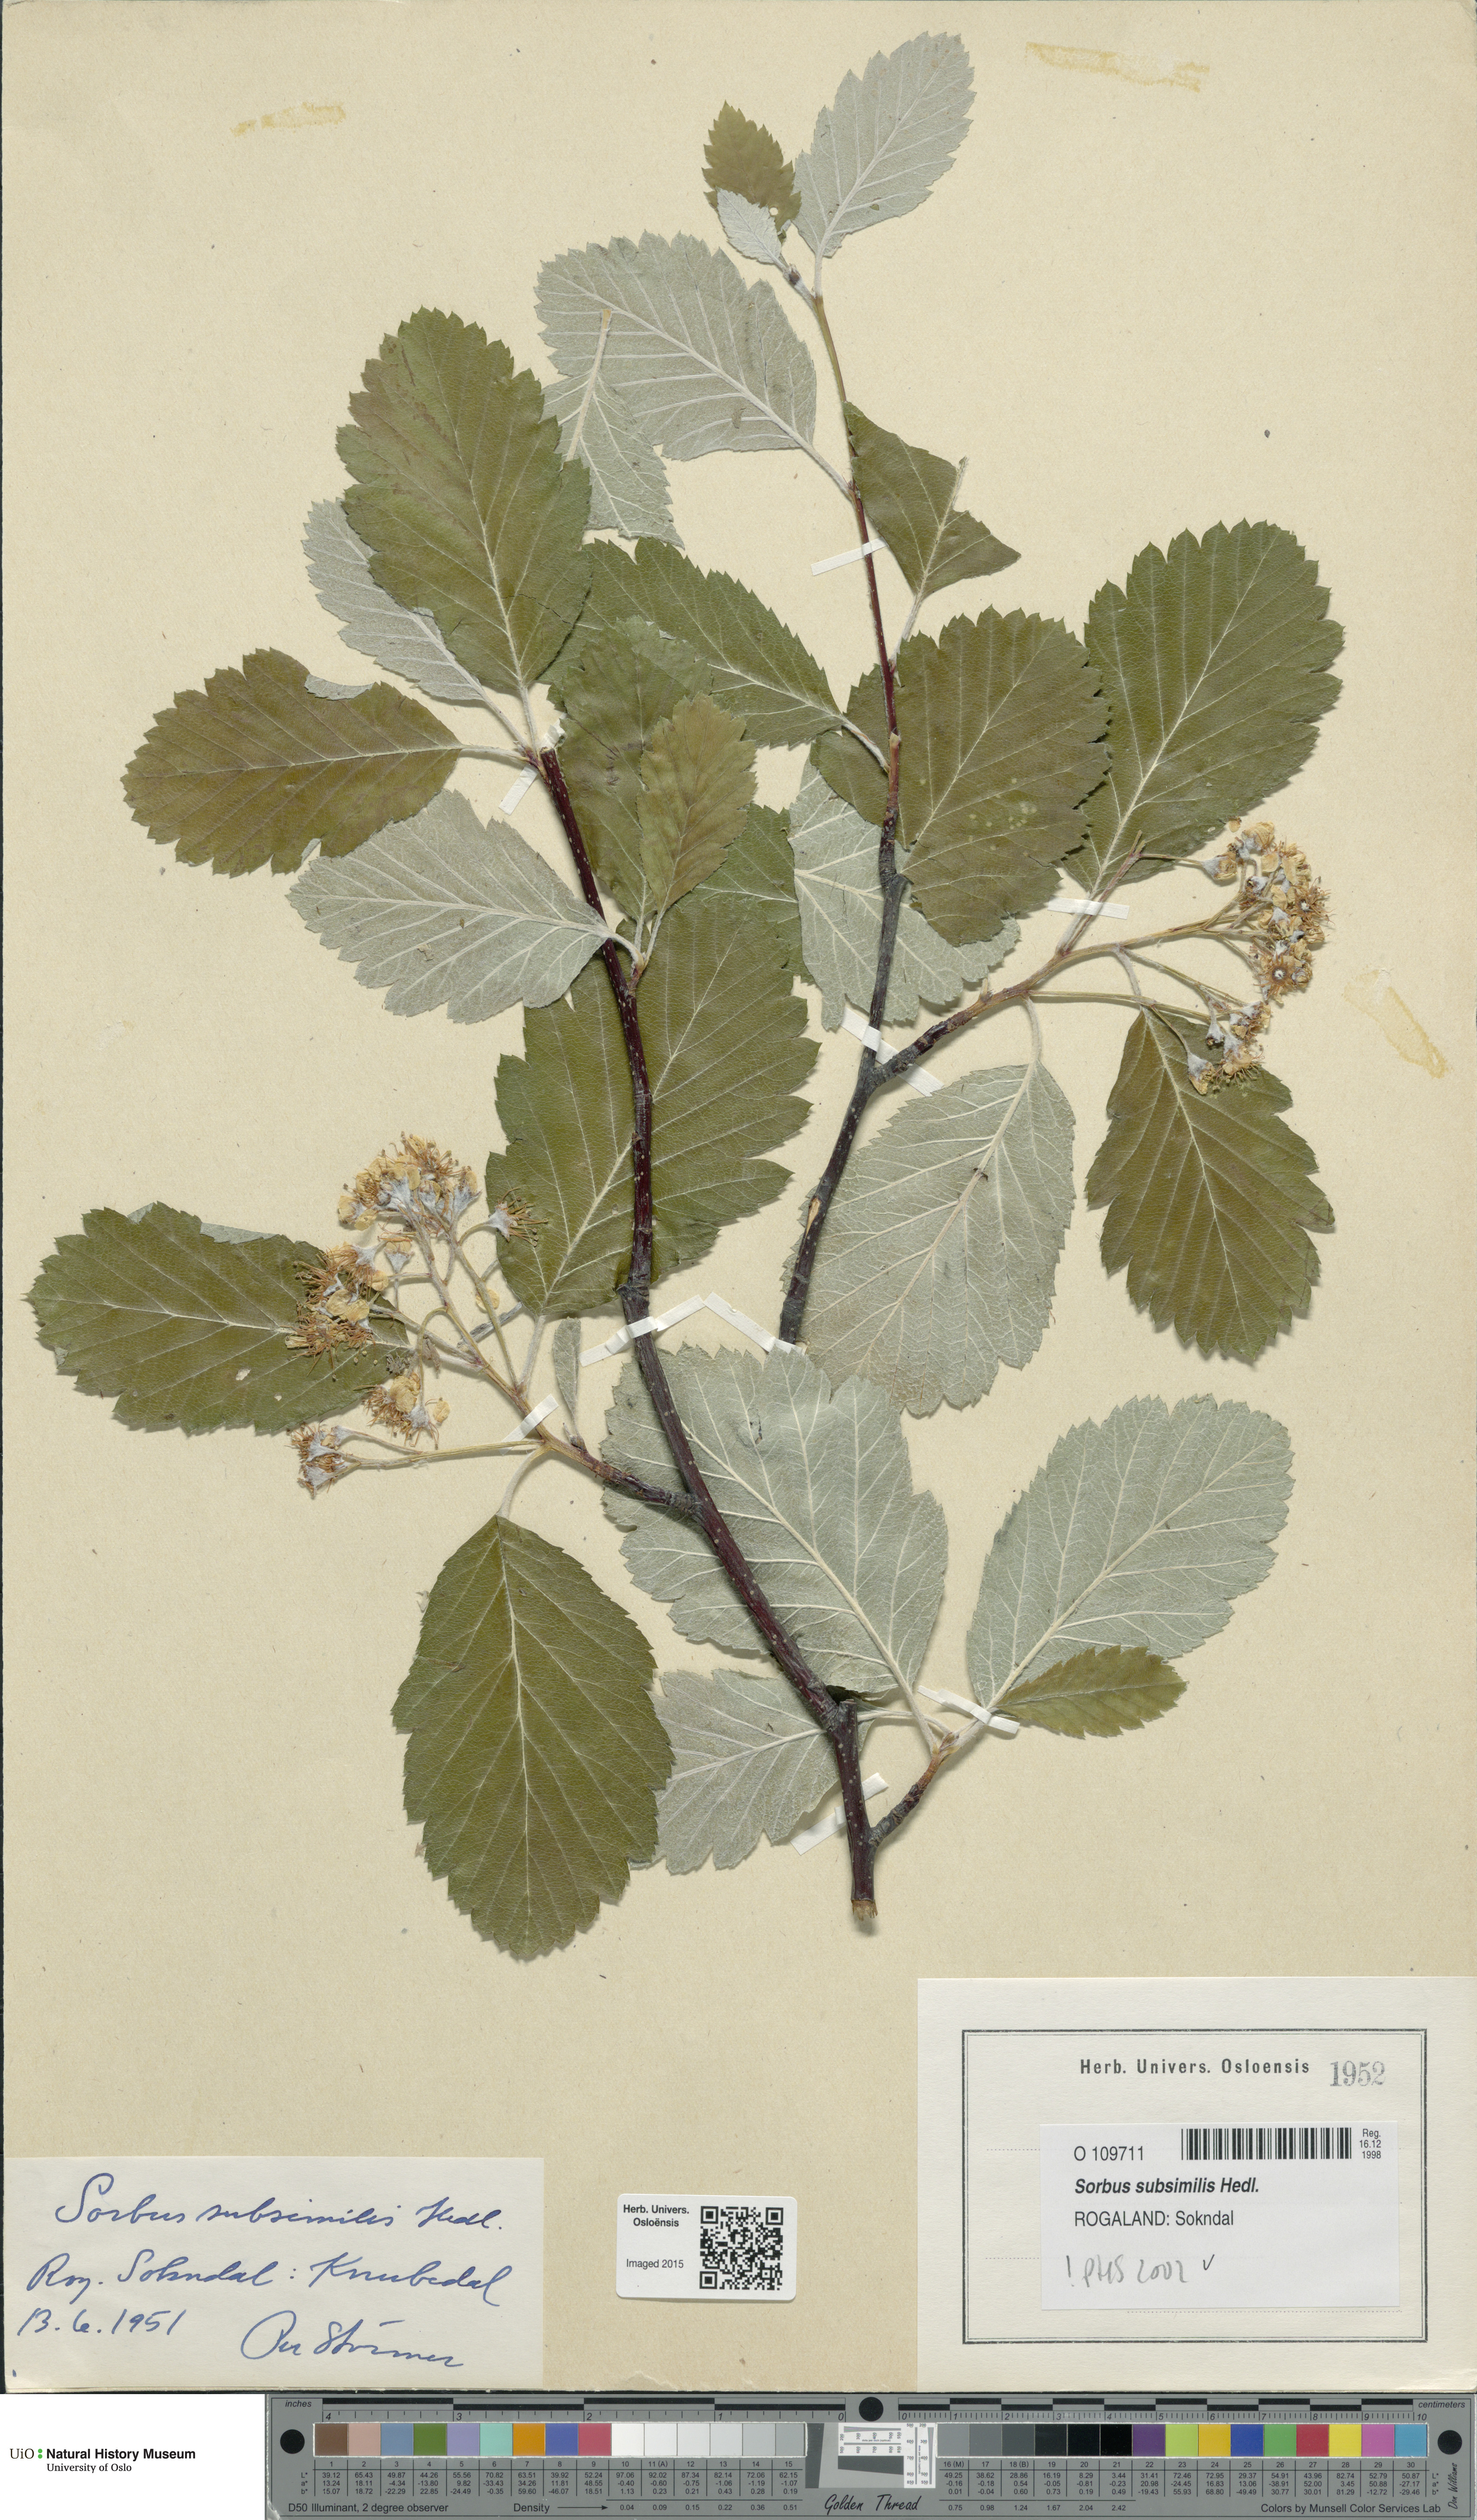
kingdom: Plantae
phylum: Tracheophyta
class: Magnoliopsida
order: Rosales
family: Rosaceae
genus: Hedlundia
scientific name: Hedlundia subsimilis
